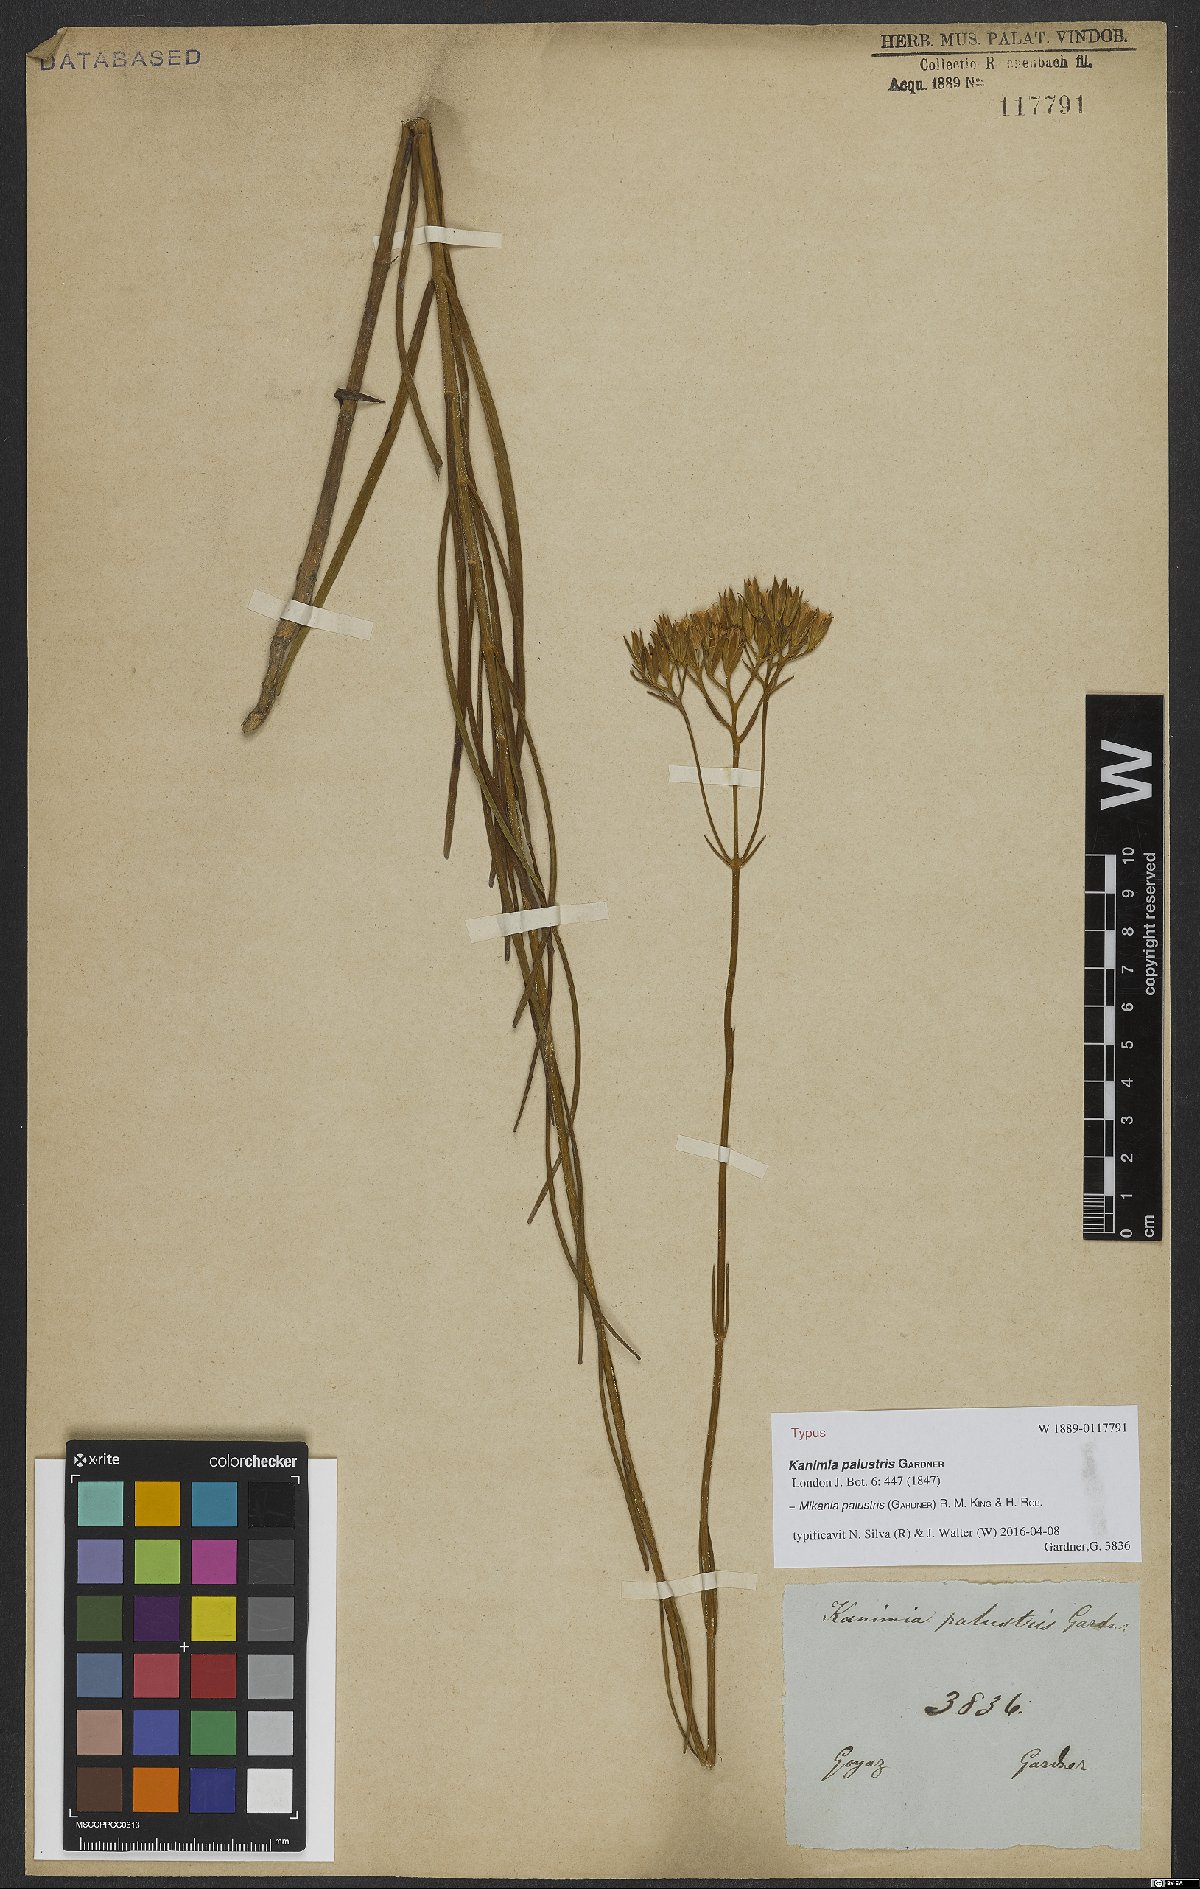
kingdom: Plantae
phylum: Tracheophyta
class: Magnoliopsida
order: Asterales
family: Asteraceae
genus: Mikania
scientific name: Mikania palustris
